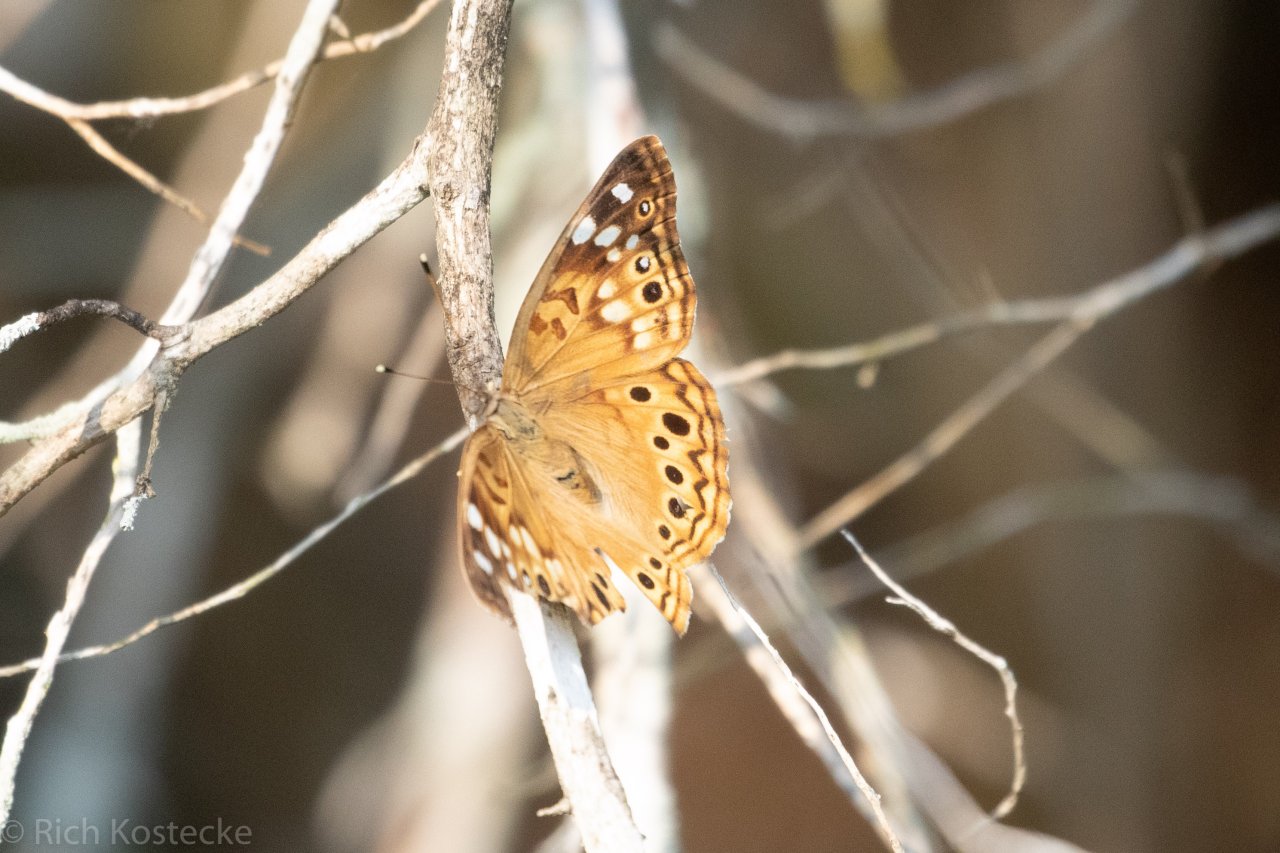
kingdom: Animalia
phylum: Arthropoda
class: Insecta
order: Lepidoptera
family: Nymphalidae
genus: Asterocampa
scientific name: Asterocampa celtis
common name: Hackberry Emperor
